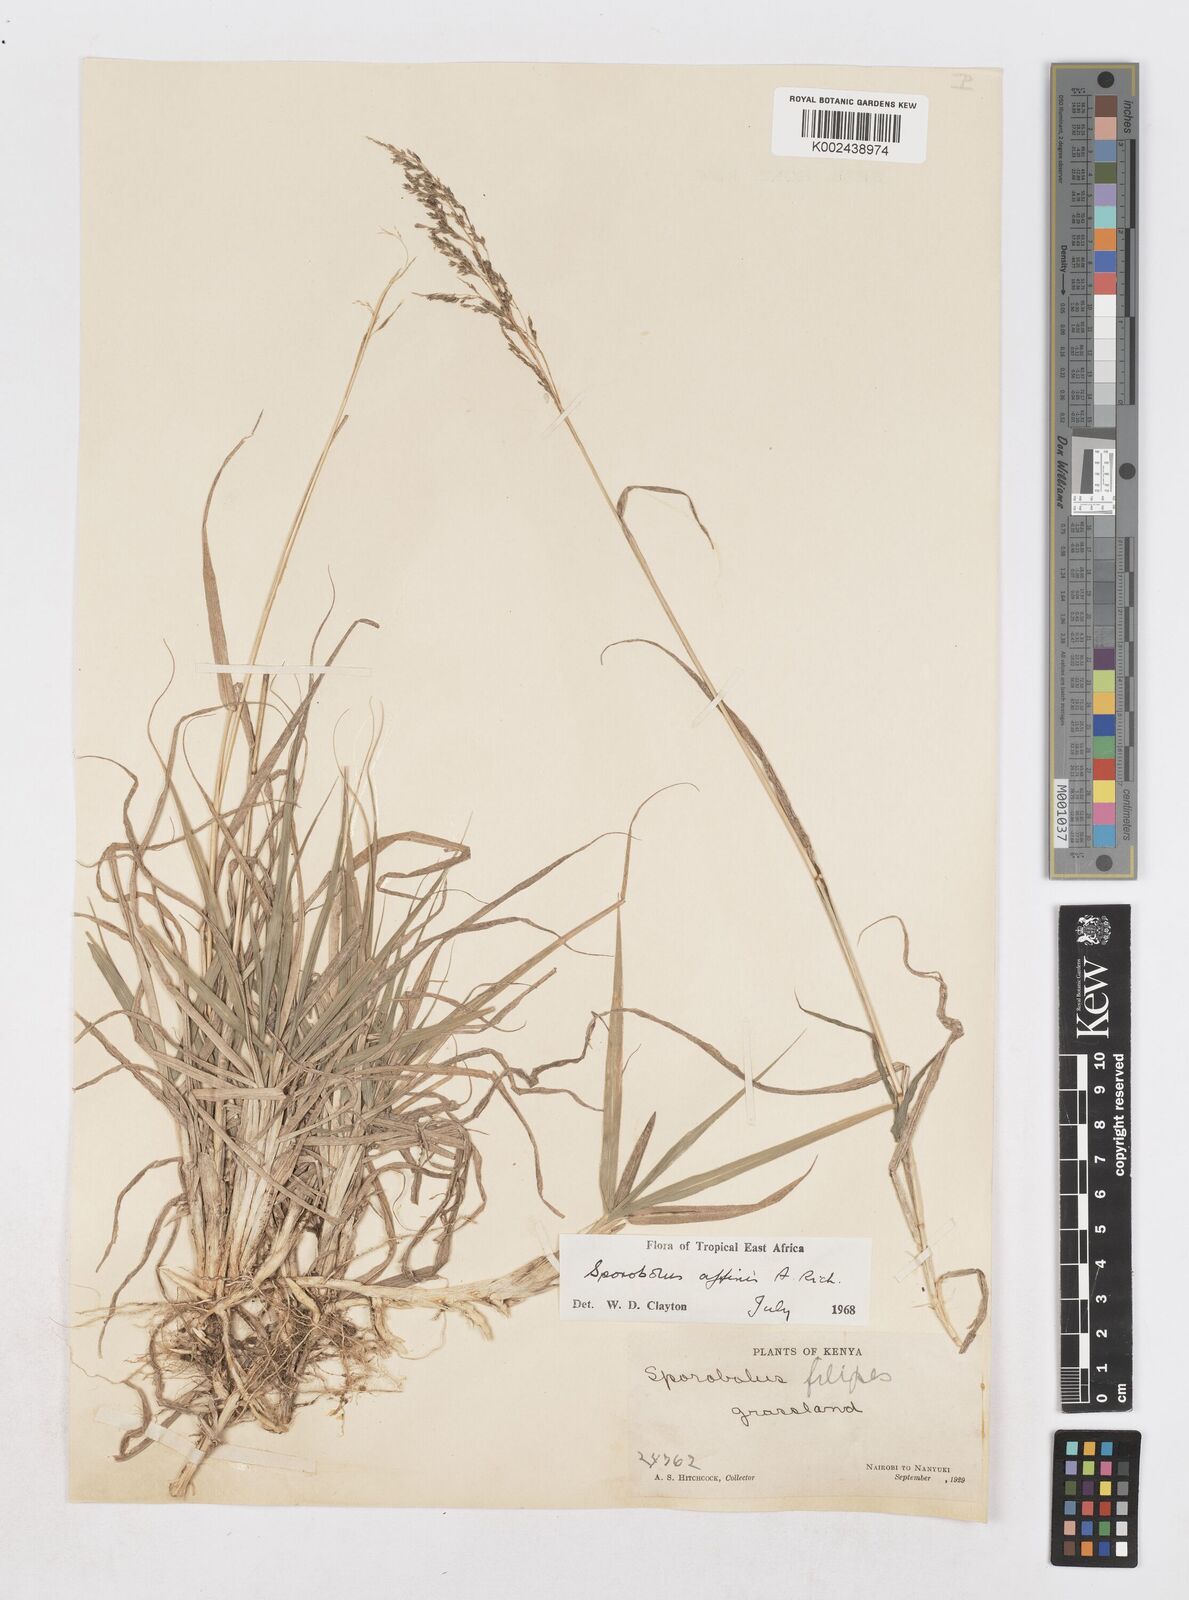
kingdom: Plantae
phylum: Tracheophyta
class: Liliopsida
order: Poales
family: Poaceae
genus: Sporobolus
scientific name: Sporobolus confinis
